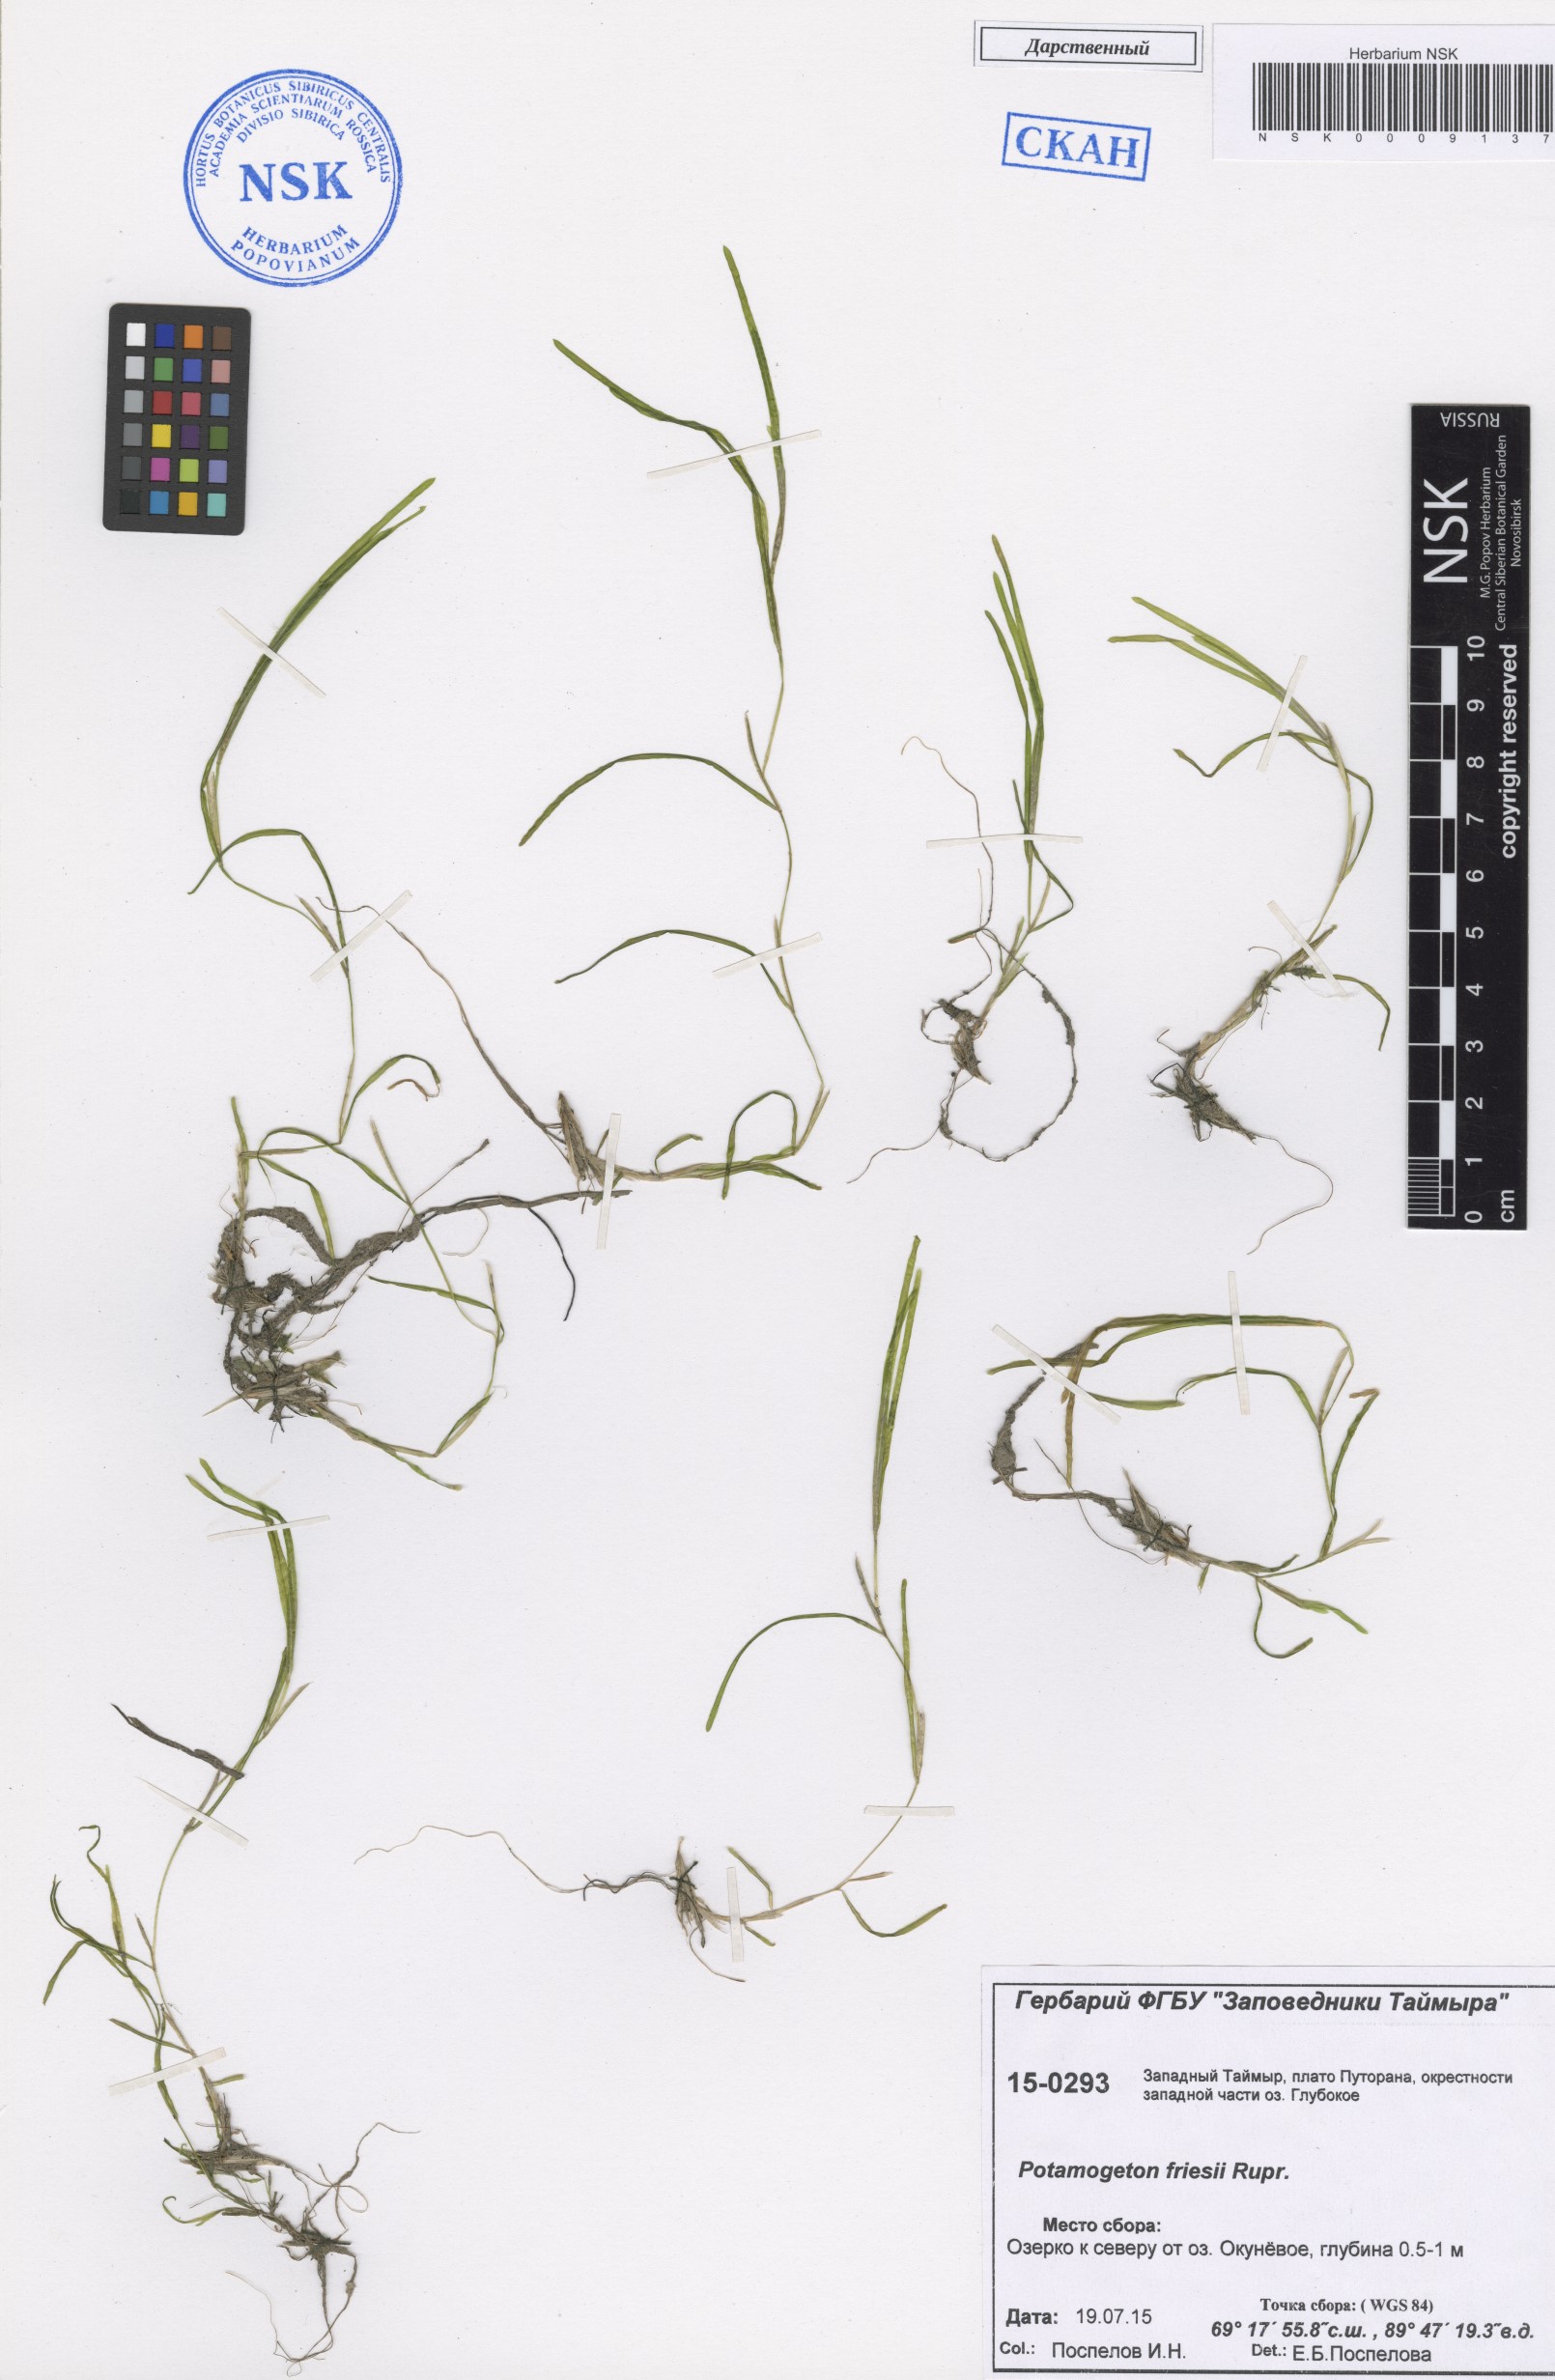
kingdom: Plantae
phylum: Tracheophyta
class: Liliopsida
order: Alismatales
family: Potamogetonaceae
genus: Potamogeton
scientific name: Potamogeton friesii
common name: Flat-stalked pondweed
